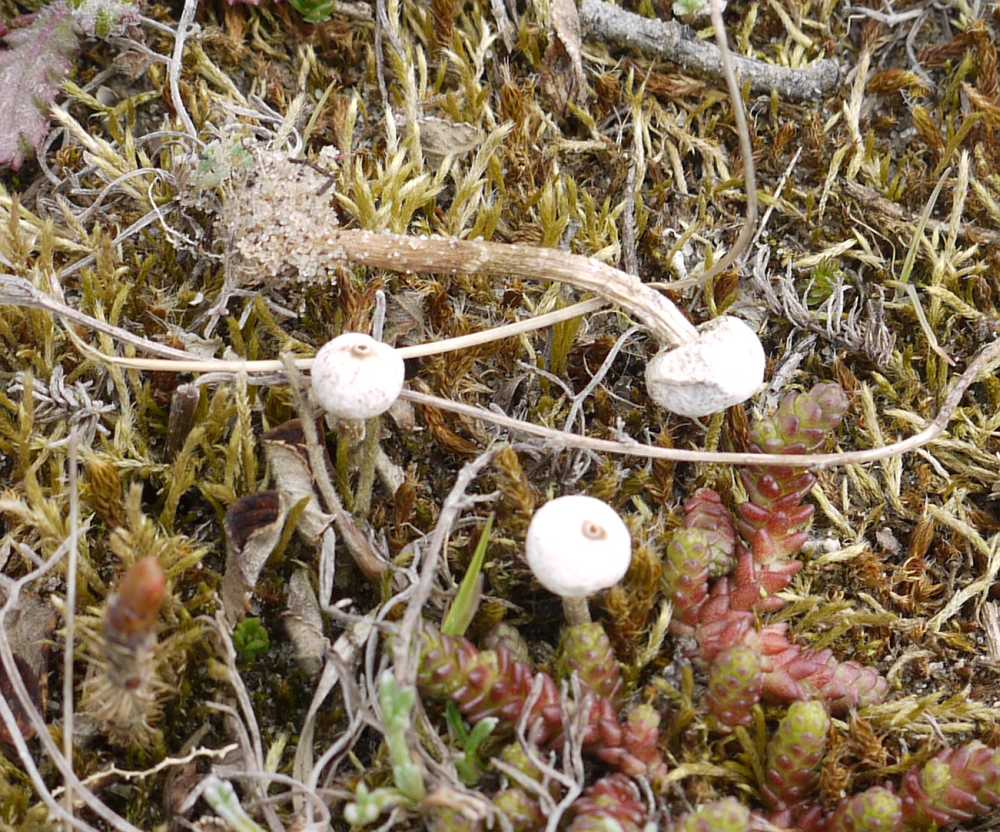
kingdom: Fungi
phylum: Basidiomycota
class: Agaricomycetes
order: Agaricales
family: Agaricaceae
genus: Tulostoma
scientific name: Tulostoma brumale
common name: vinter-stilkbovist
